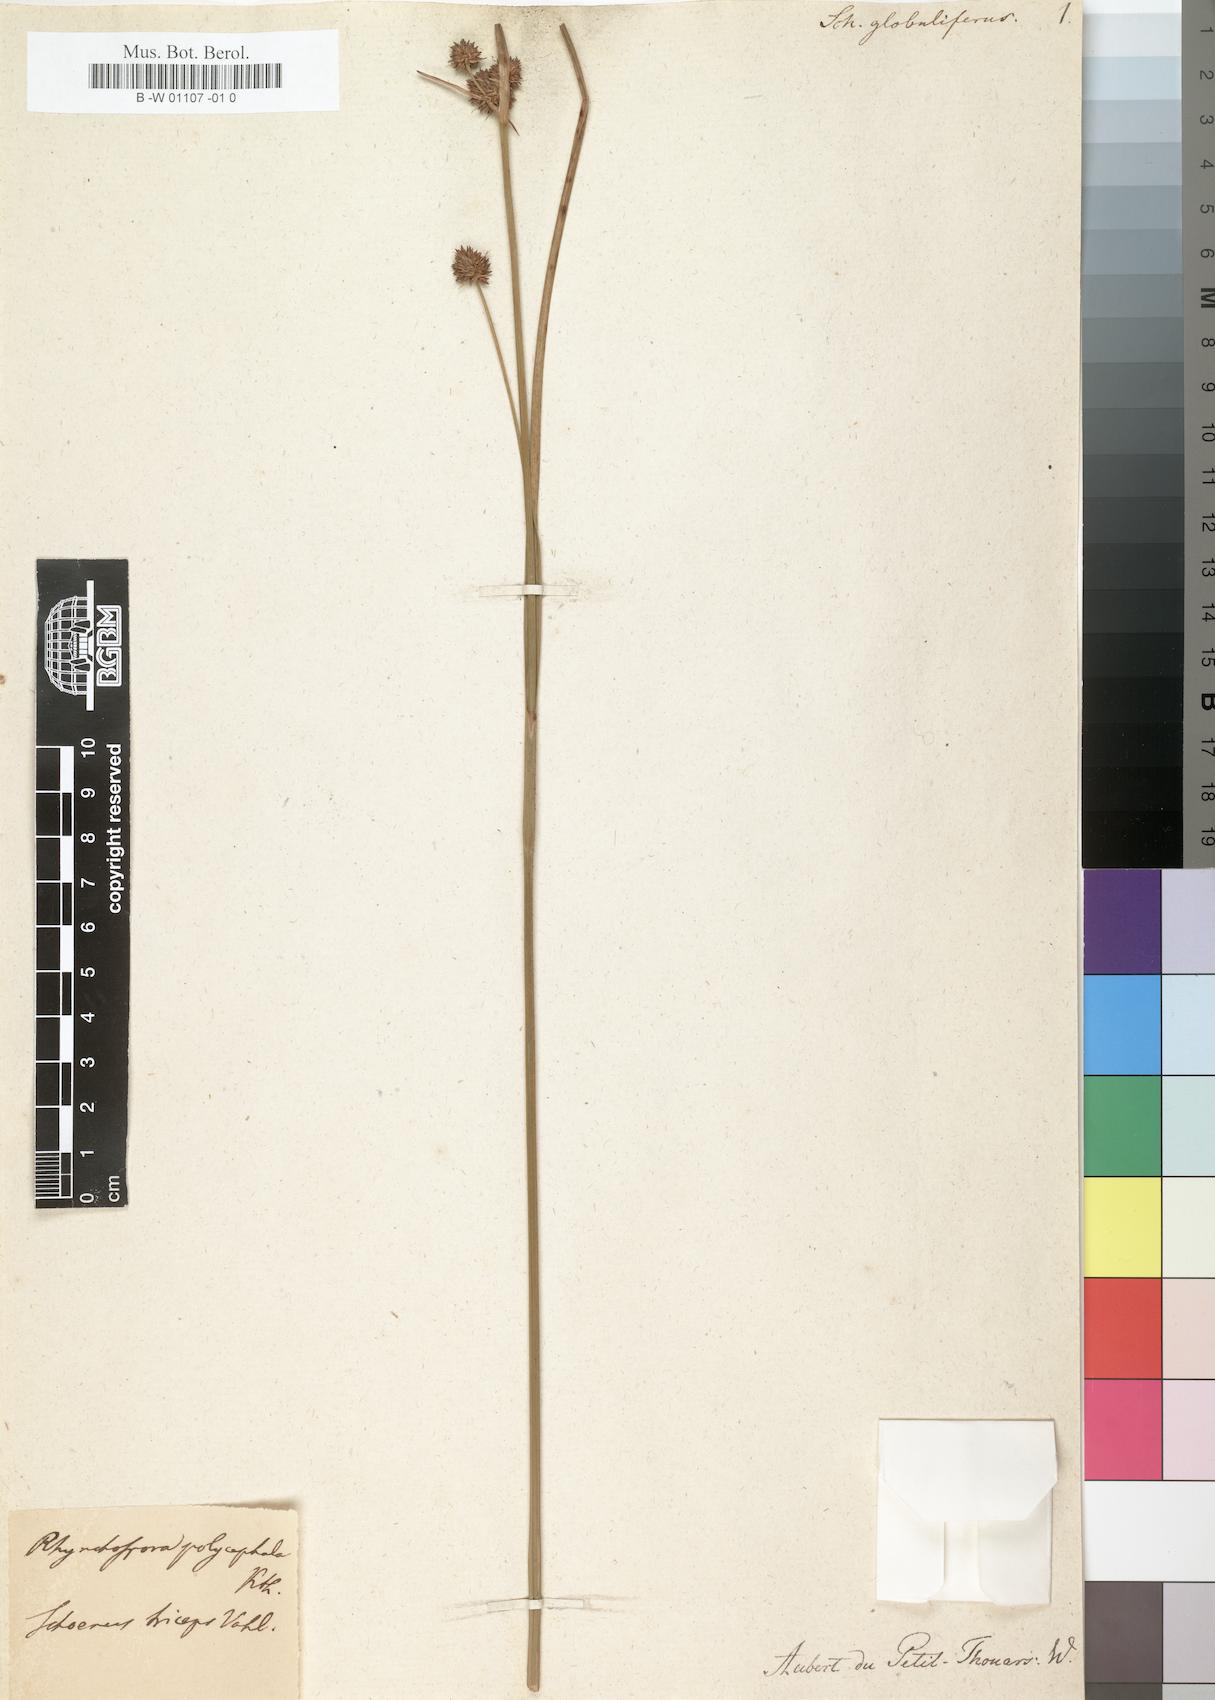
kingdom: Plantae
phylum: Tracheophyta
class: Liliopsida
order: Poales
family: Cyperaceae
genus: Rhynchospora
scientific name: Rhynchospora holoschoenoides
